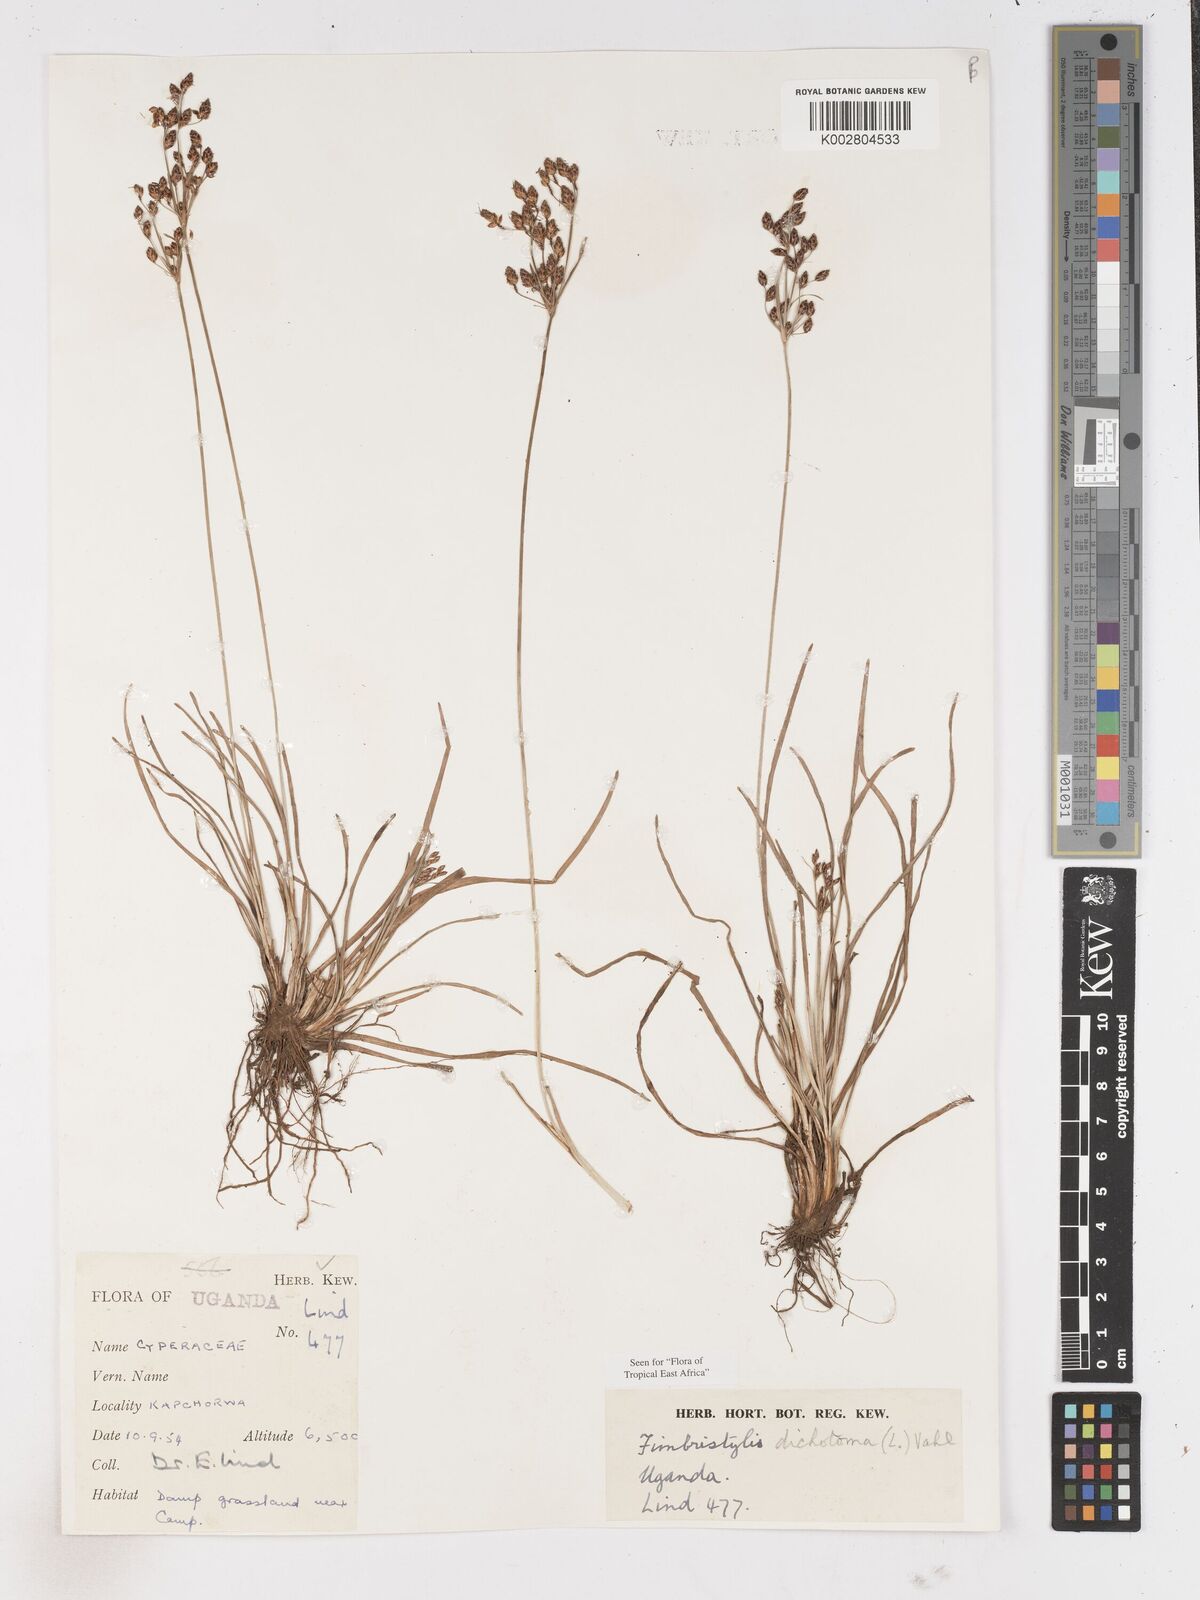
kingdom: Plantae
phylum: Tracheophyta
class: Liliopsida
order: Poales
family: Cyperaceae
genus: Fimbristylis
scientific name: Fimbristylis dichotoma
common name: Forked fimbry
